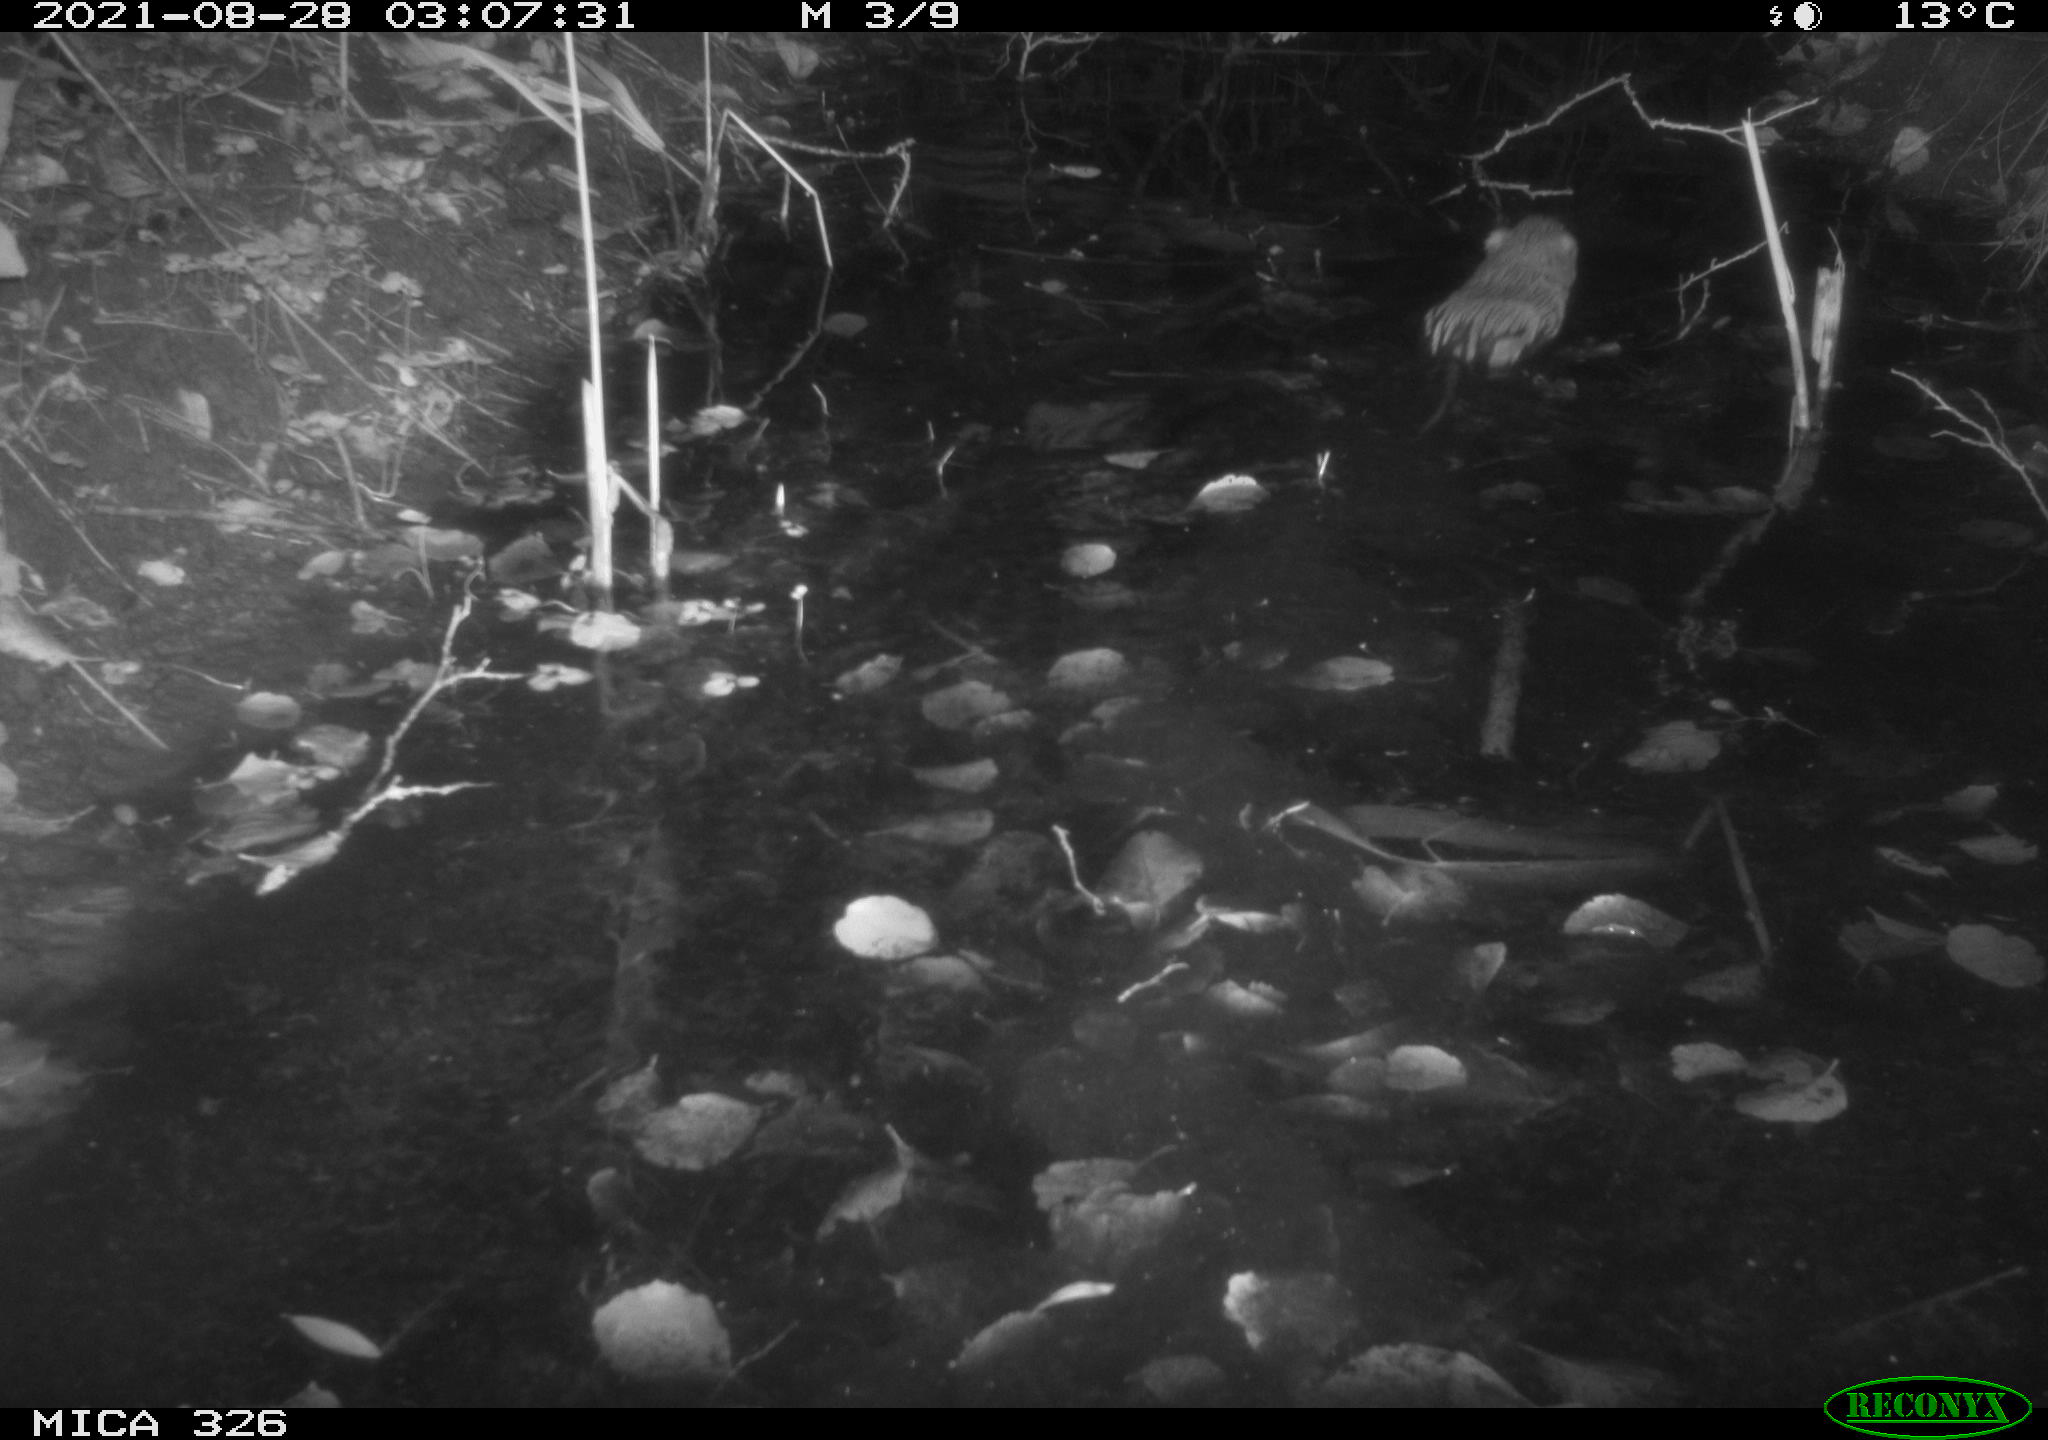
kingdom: Animalia
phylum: Chordata
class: Mammalia
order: Rodentia
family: Cricetidae
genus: Ondatra
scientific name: Ondatra zibethicus
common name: Muskrat
